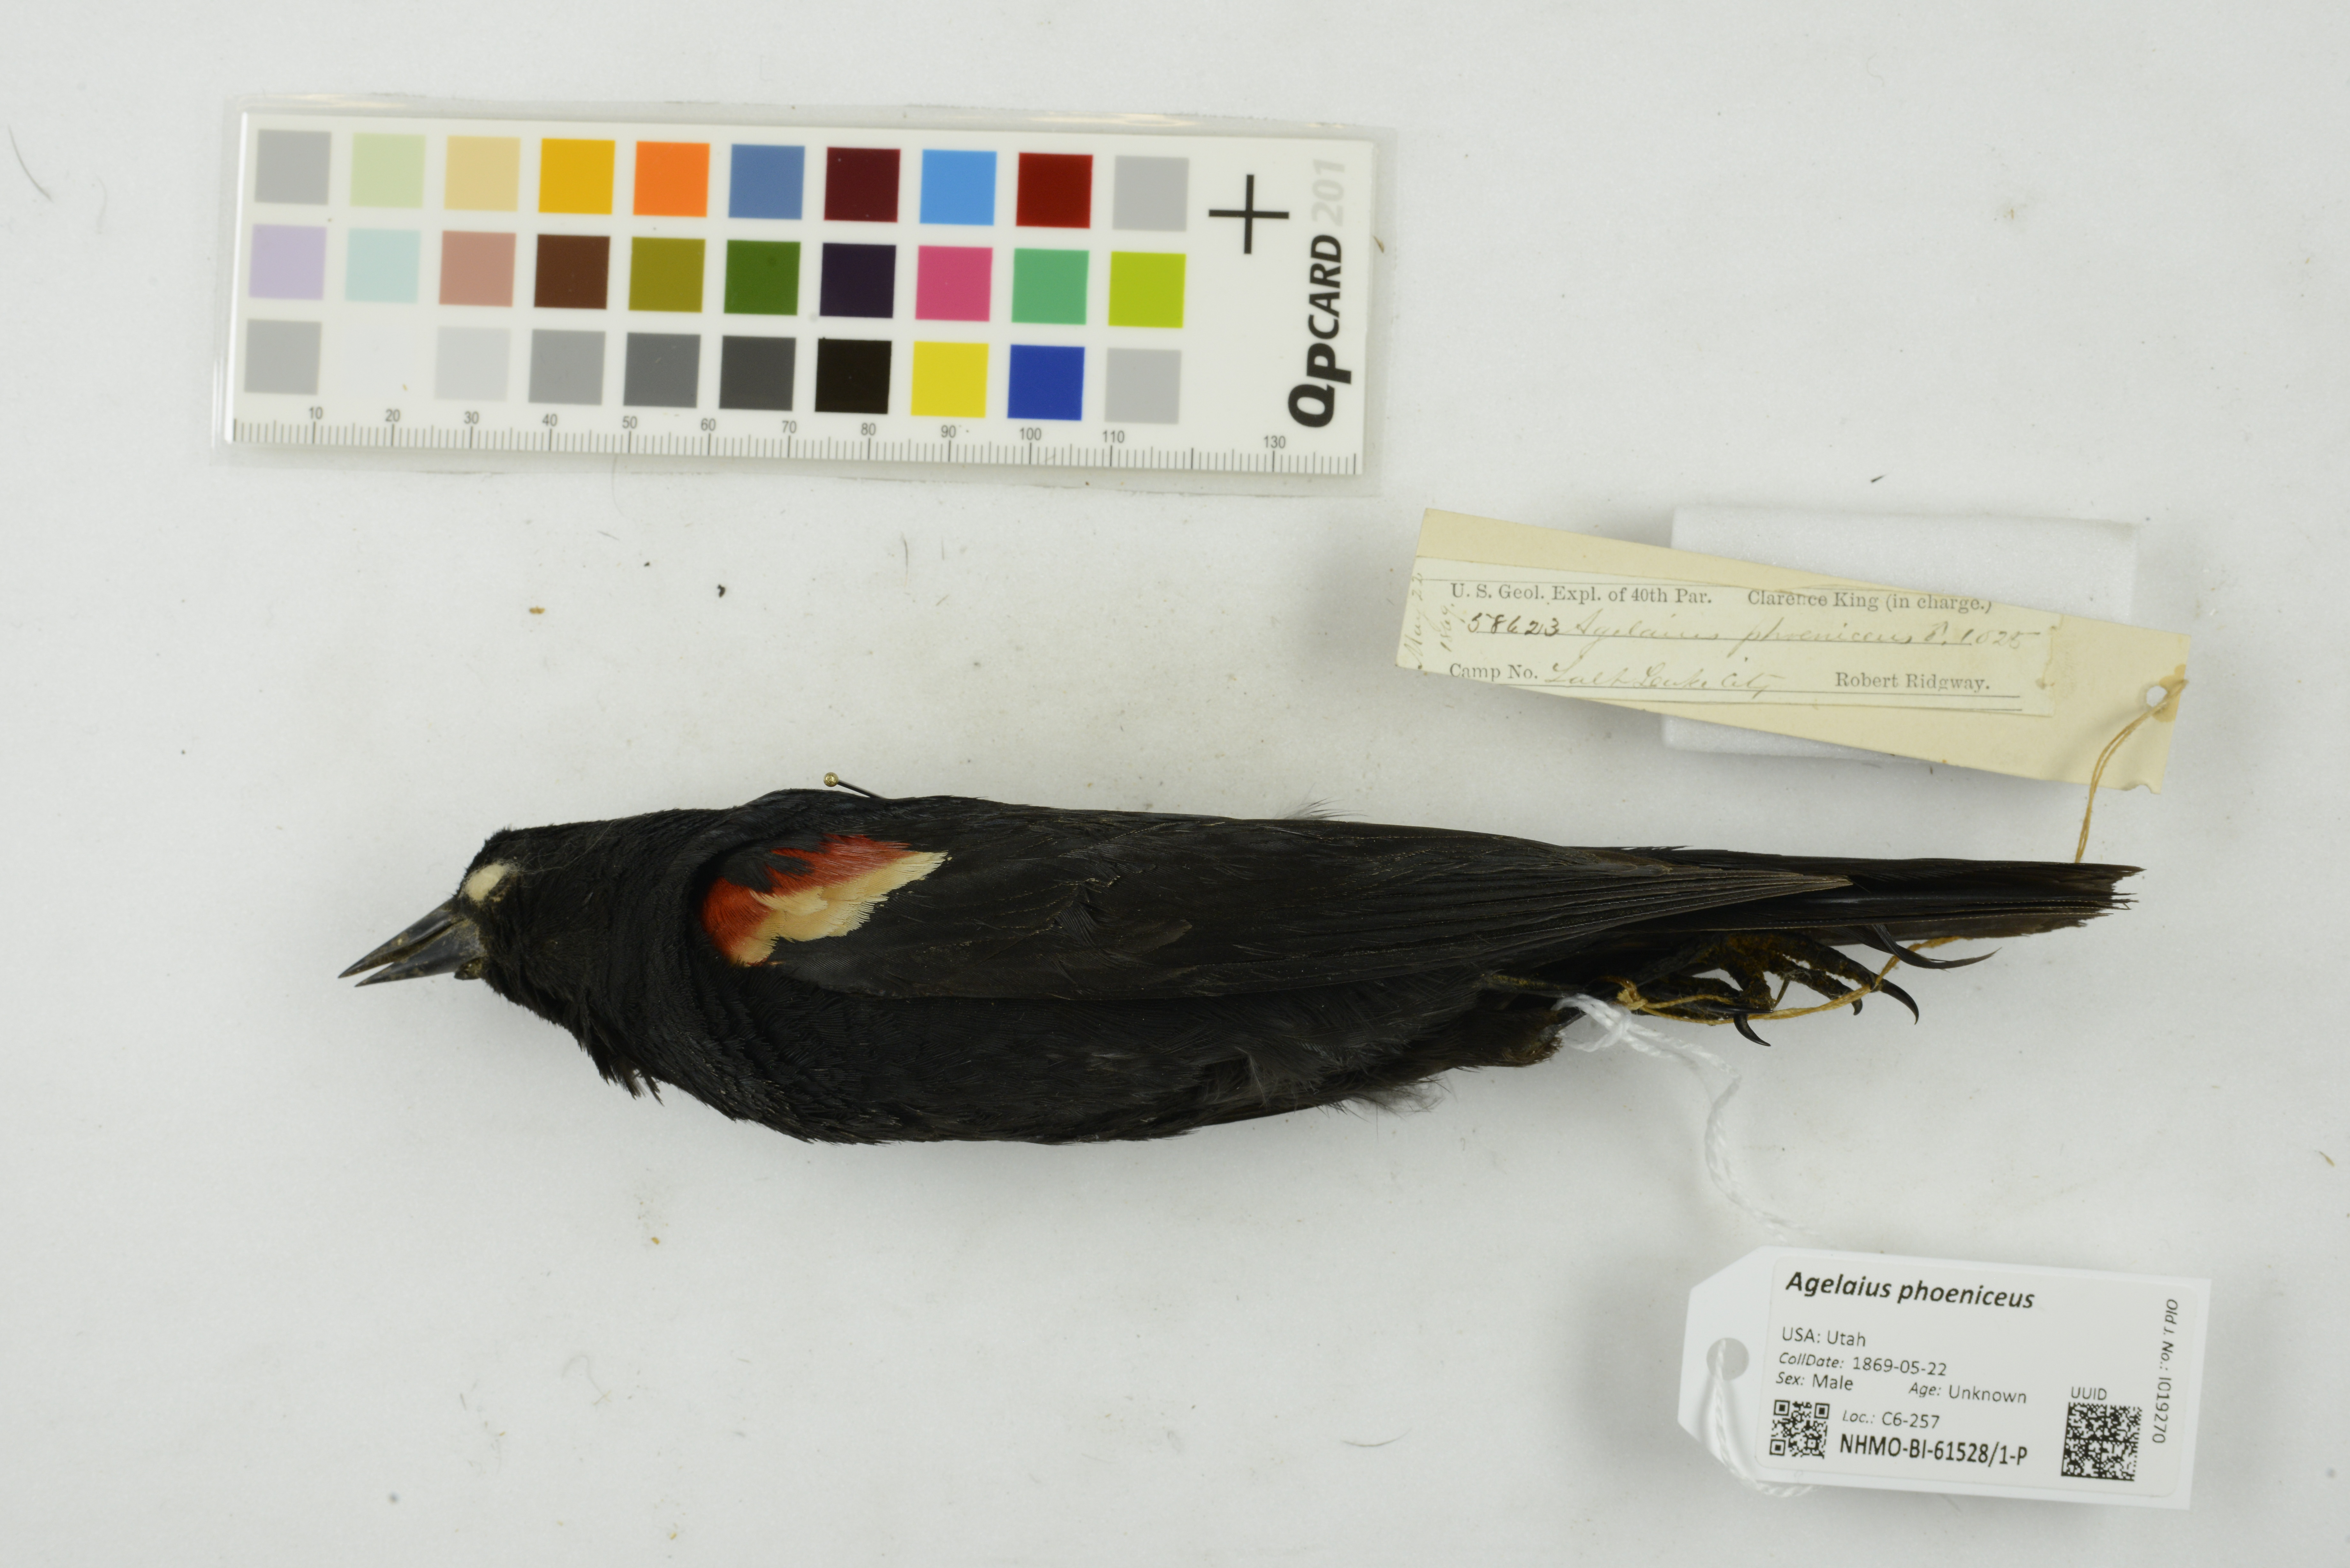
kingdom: Animalia
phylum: Chordata
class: Aves
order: Passeriformes
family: Icteridae
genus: Agelaius
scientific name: Agelaius phoeniceus
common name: Red-winged blackbird
